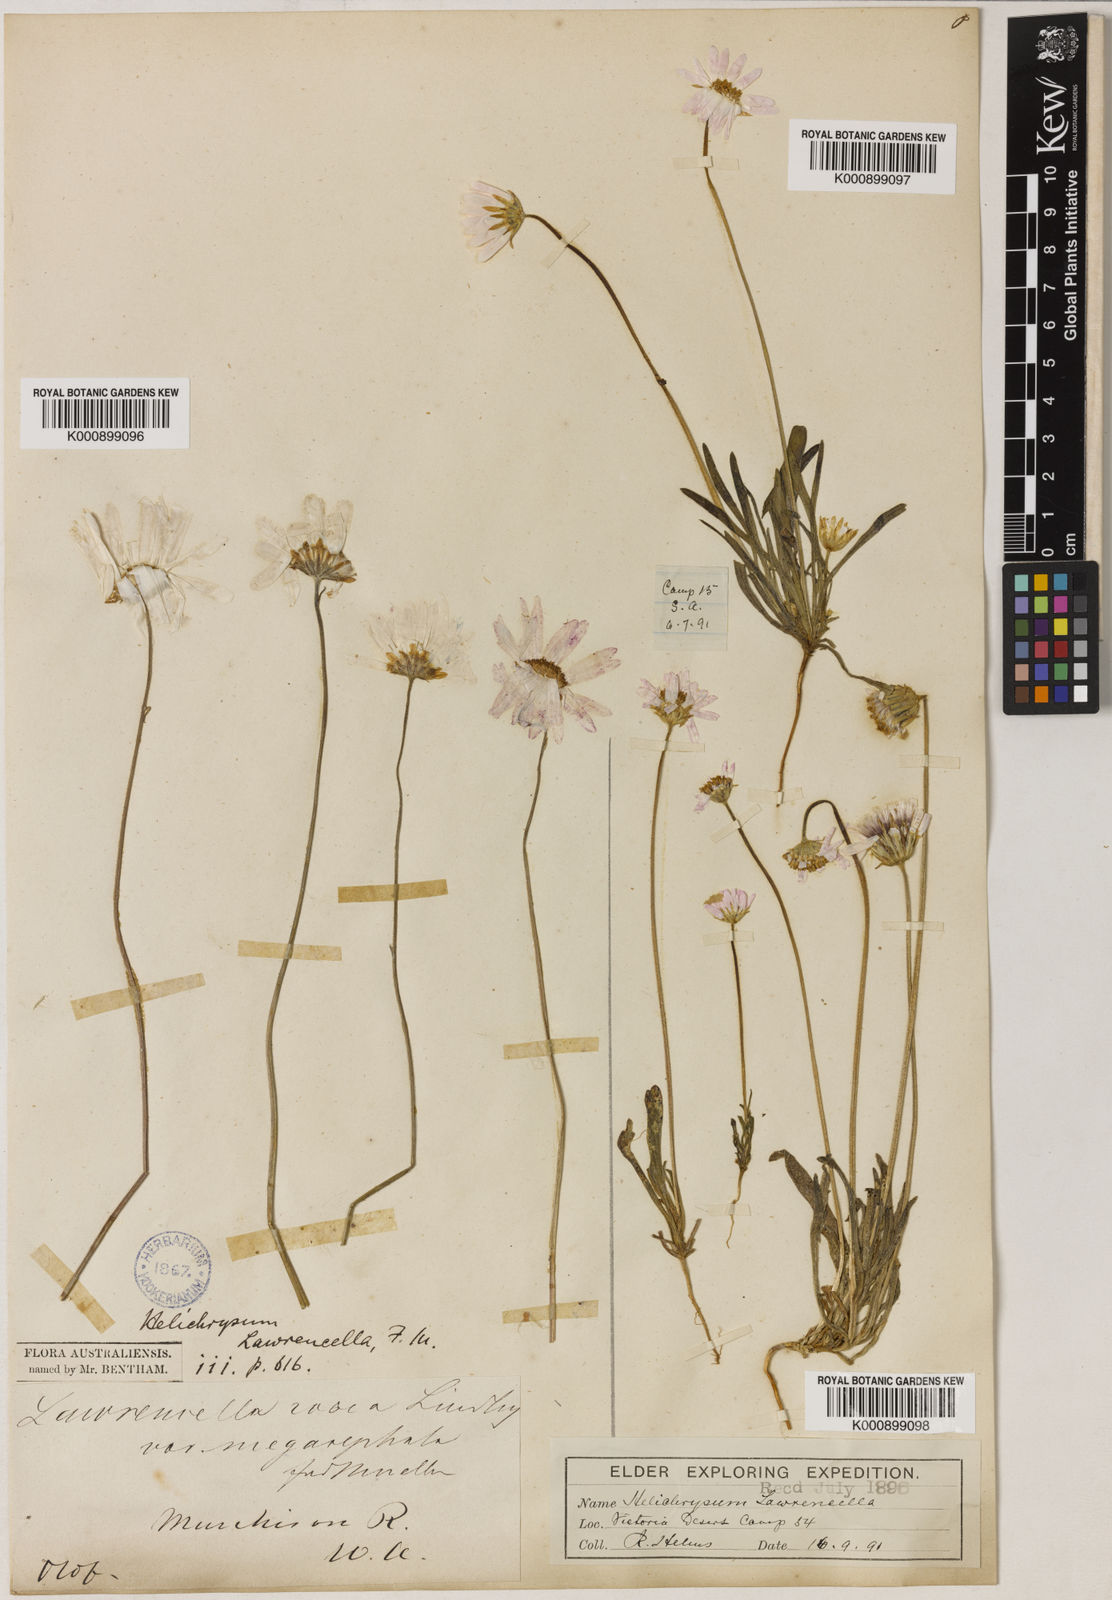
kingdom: Plantae
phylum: Tracheophyta
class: Magnoliopsida
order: Asterales
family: Asteraceae
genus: Lawrencella
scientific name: Lawrencella davenportii
